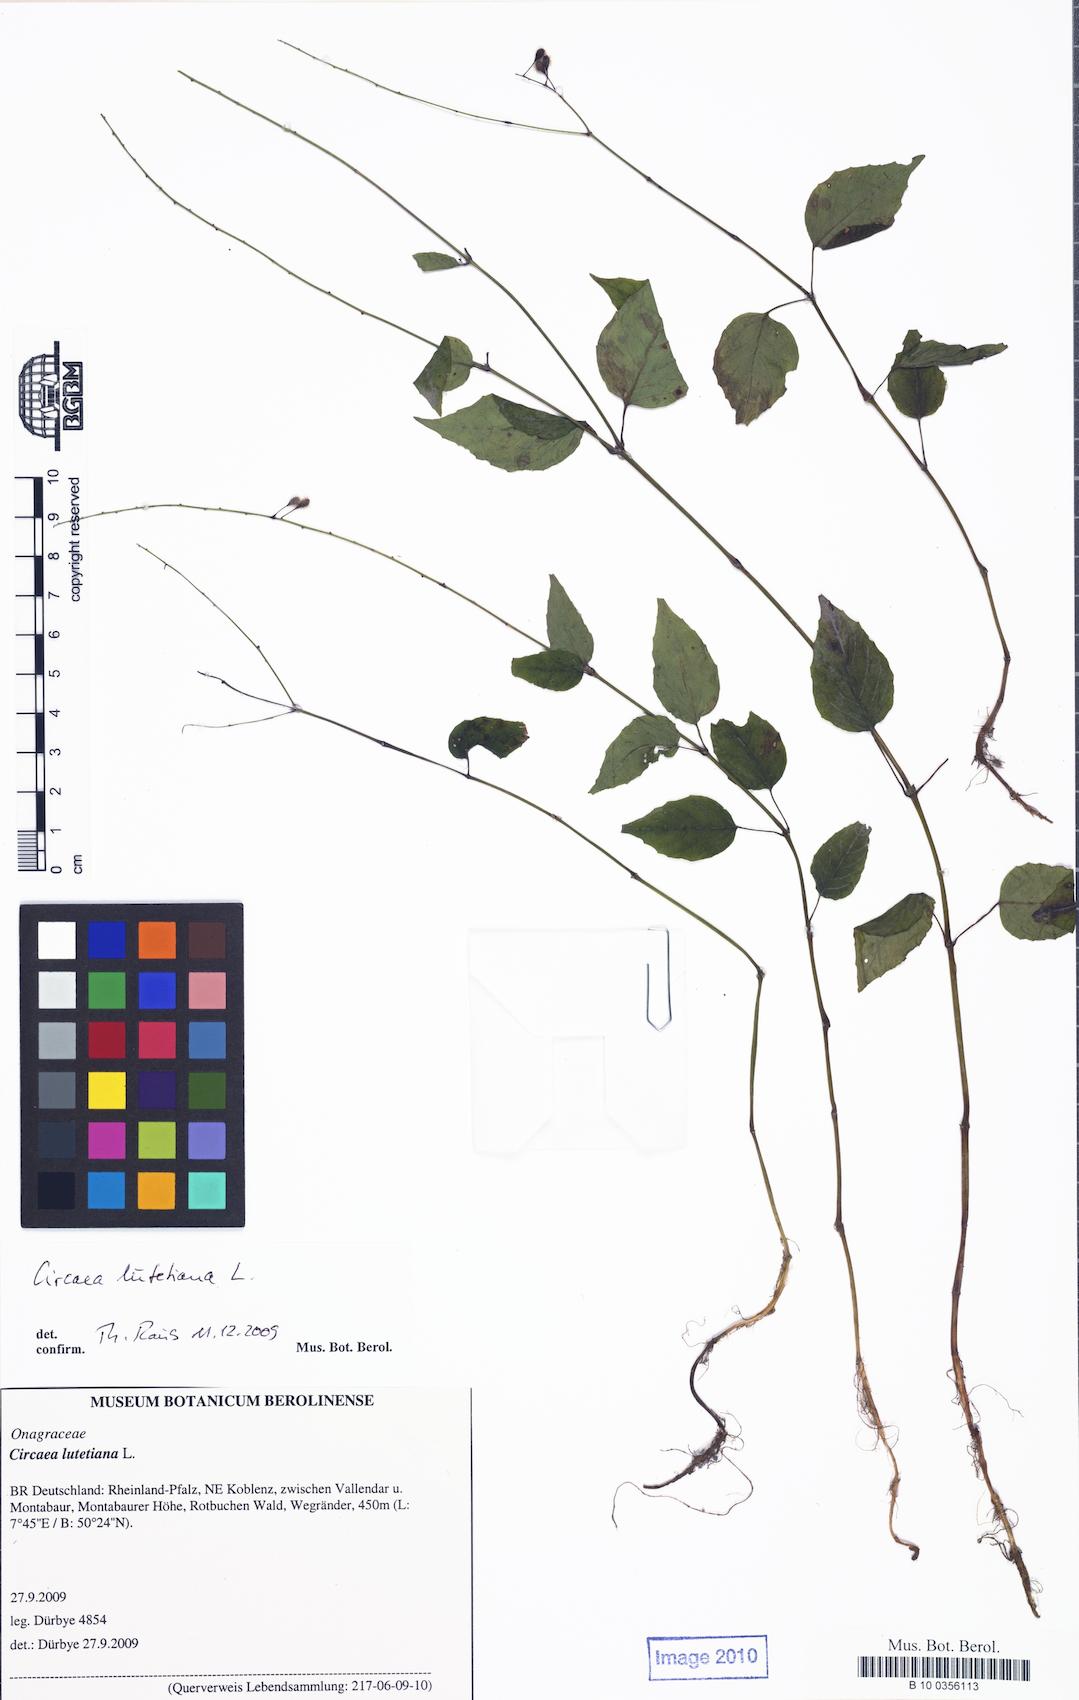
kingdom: Plantae
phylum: Tracheophyta
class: Magnoliopsida
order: Myrtales
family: Onagraceae
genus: Circaea
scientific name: Circaea lutetiana
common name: Enchanter's-nightshade
